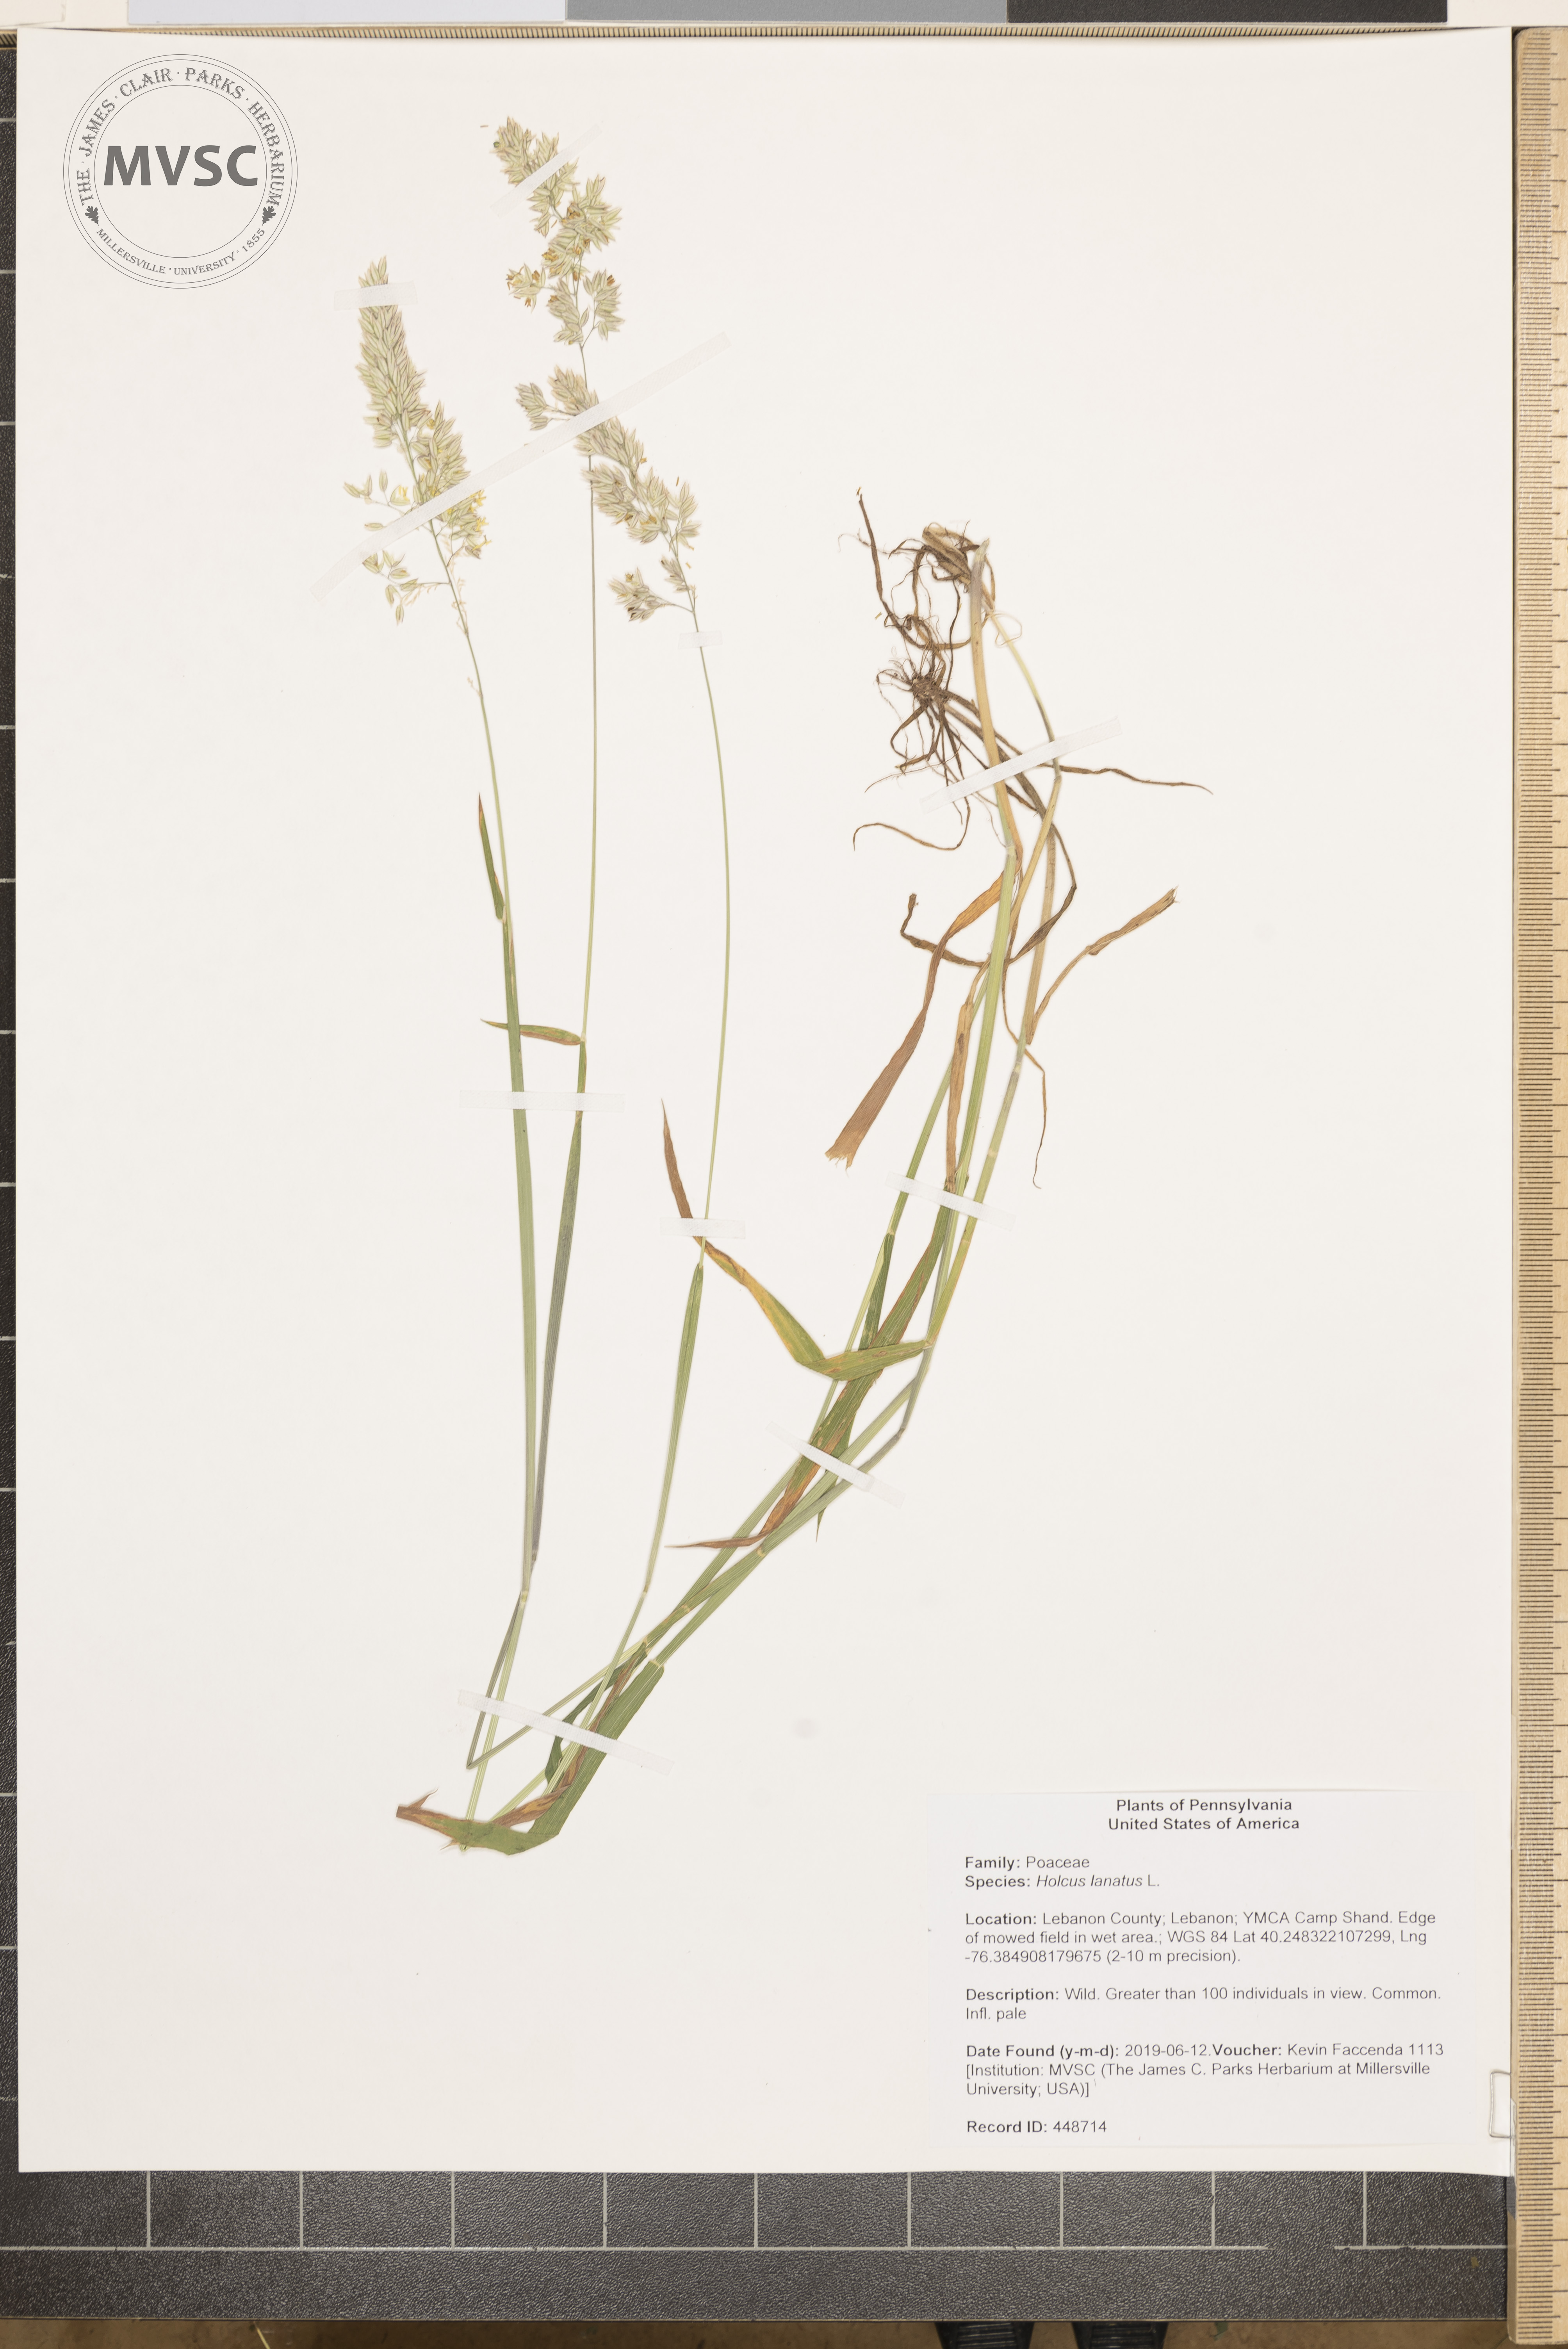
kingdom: Plantae
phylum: Tracheophyta
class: Liliopsida
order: Poales
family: Poaceae
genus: Holcus
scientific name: Holcus lanatus
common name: Yorkshire-fog
